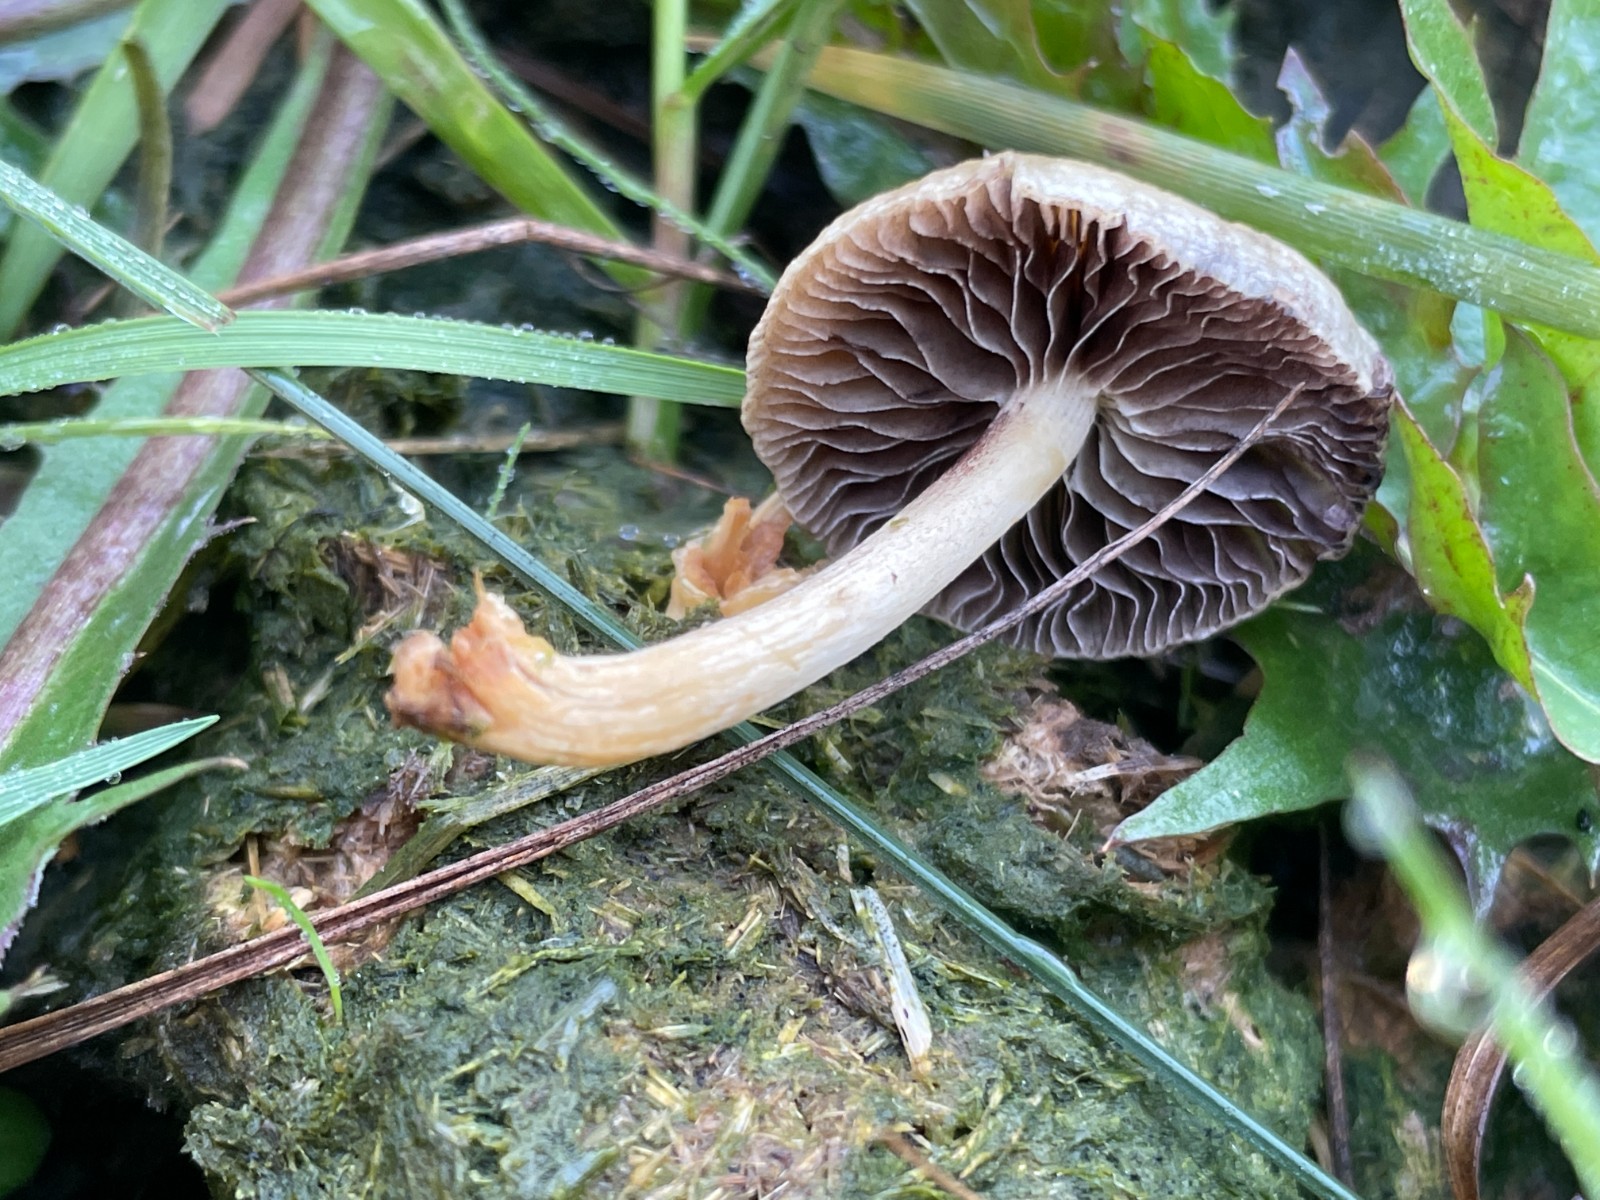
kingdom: Fungi
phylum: Basidiomycota
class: Agaricomycetes
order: Agaricales
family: Strophariaceae
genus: Protostropharia
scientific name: Protostropharia semiglobata
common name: halvkugleformet bredblad
